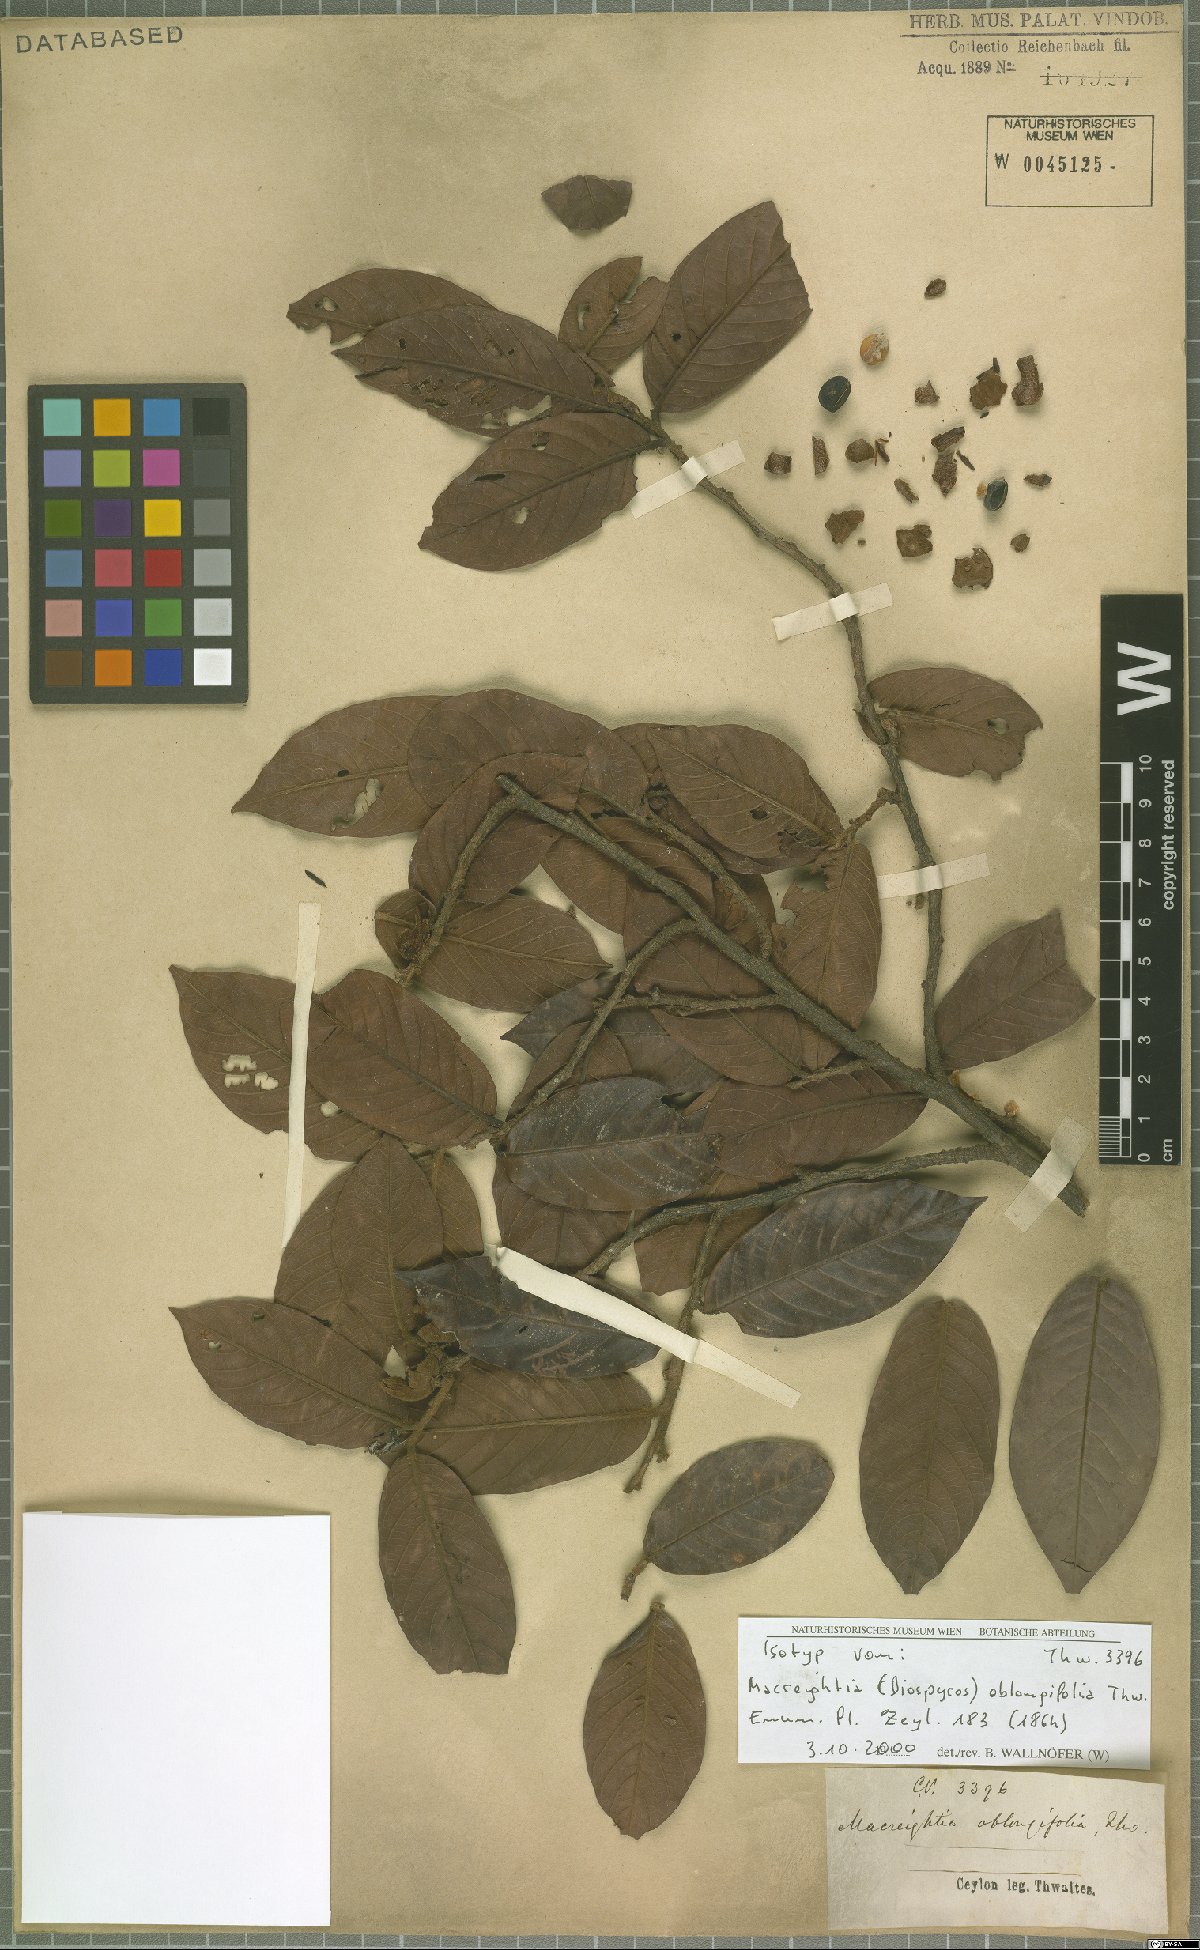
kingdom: Plantae
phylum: Tracheophyta
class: Magnoliopsida
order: Ericales
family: Ebenaceae
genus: Diospyros
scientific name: Diospyros srilankana
